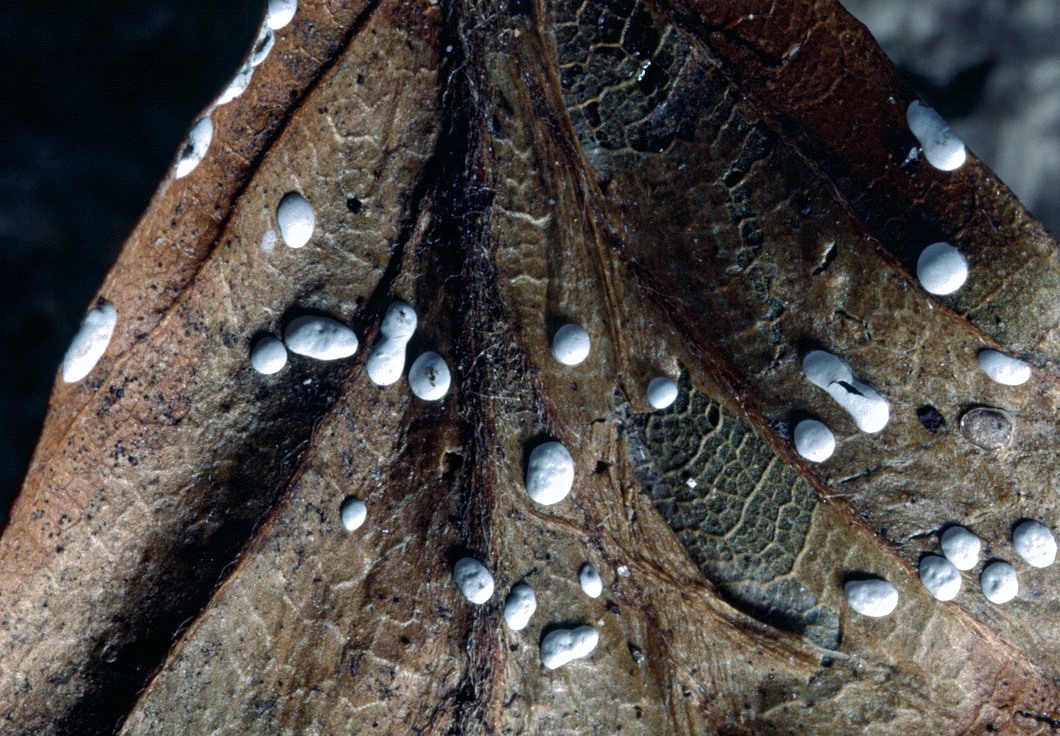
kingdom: Protozoa
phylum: Mycetozoa
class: Myxomycetes
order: Physarales
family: Didymiaceae
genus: Didymium
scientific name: Didymium difforme
